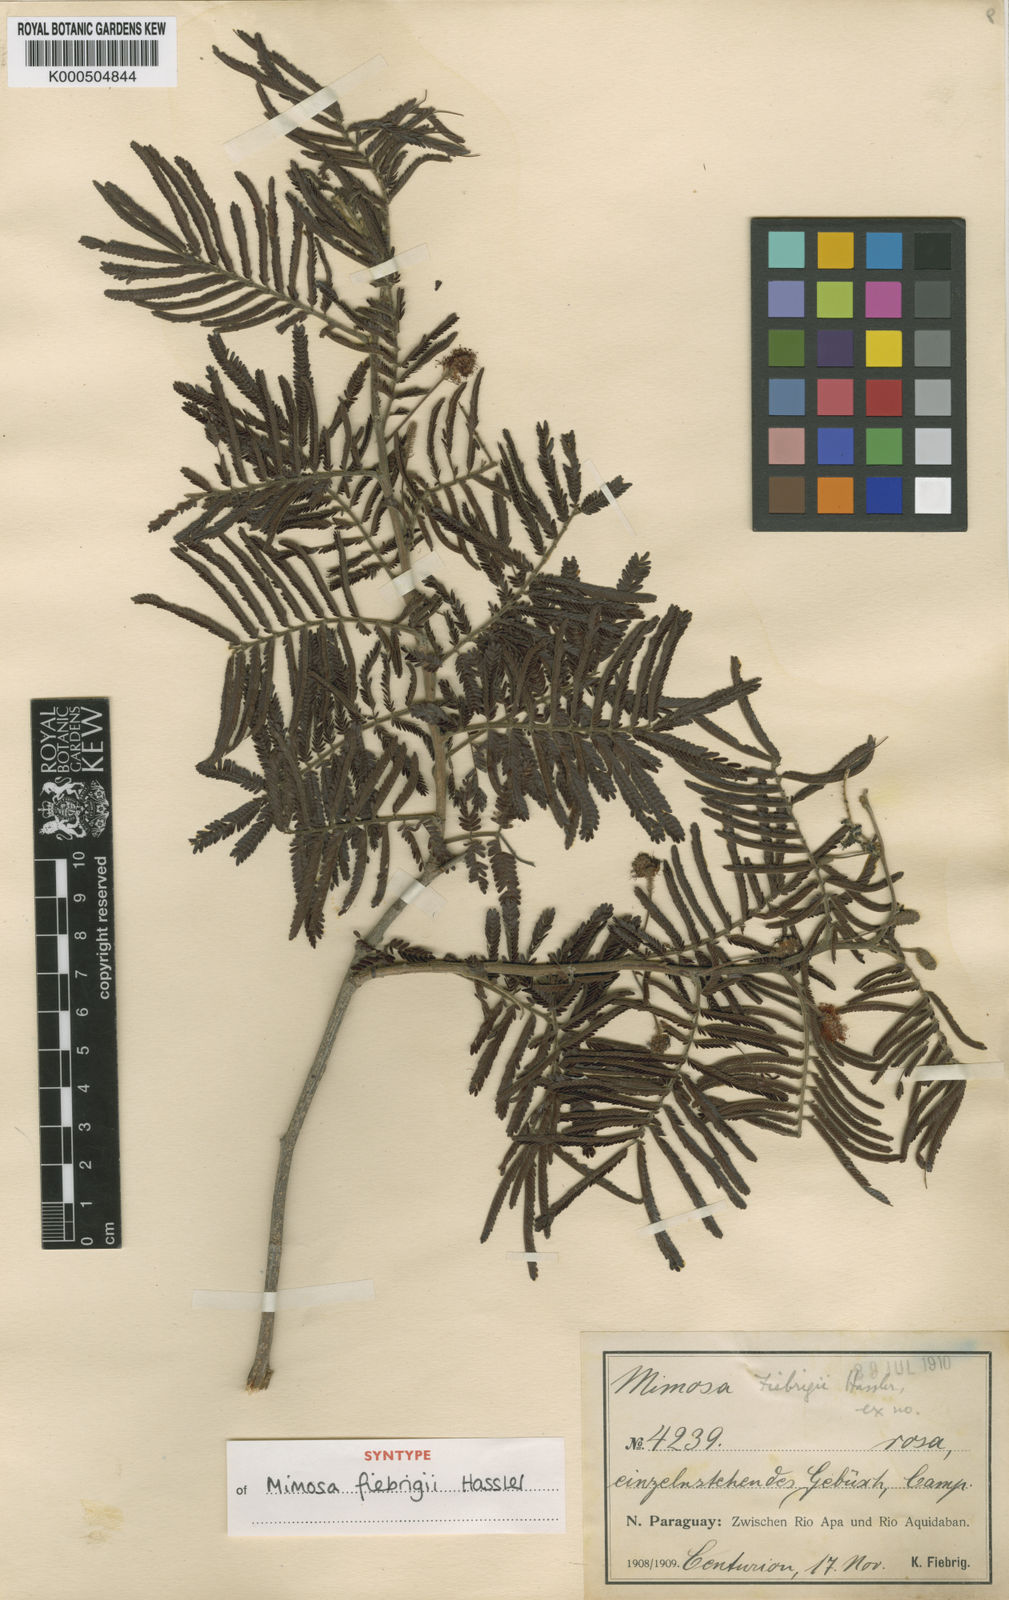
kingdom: Plantae
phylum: Tracheophyta
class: Magnoliopsida
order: Fabales
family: Fabaceae
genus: Prosopis
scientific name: Prosopis
